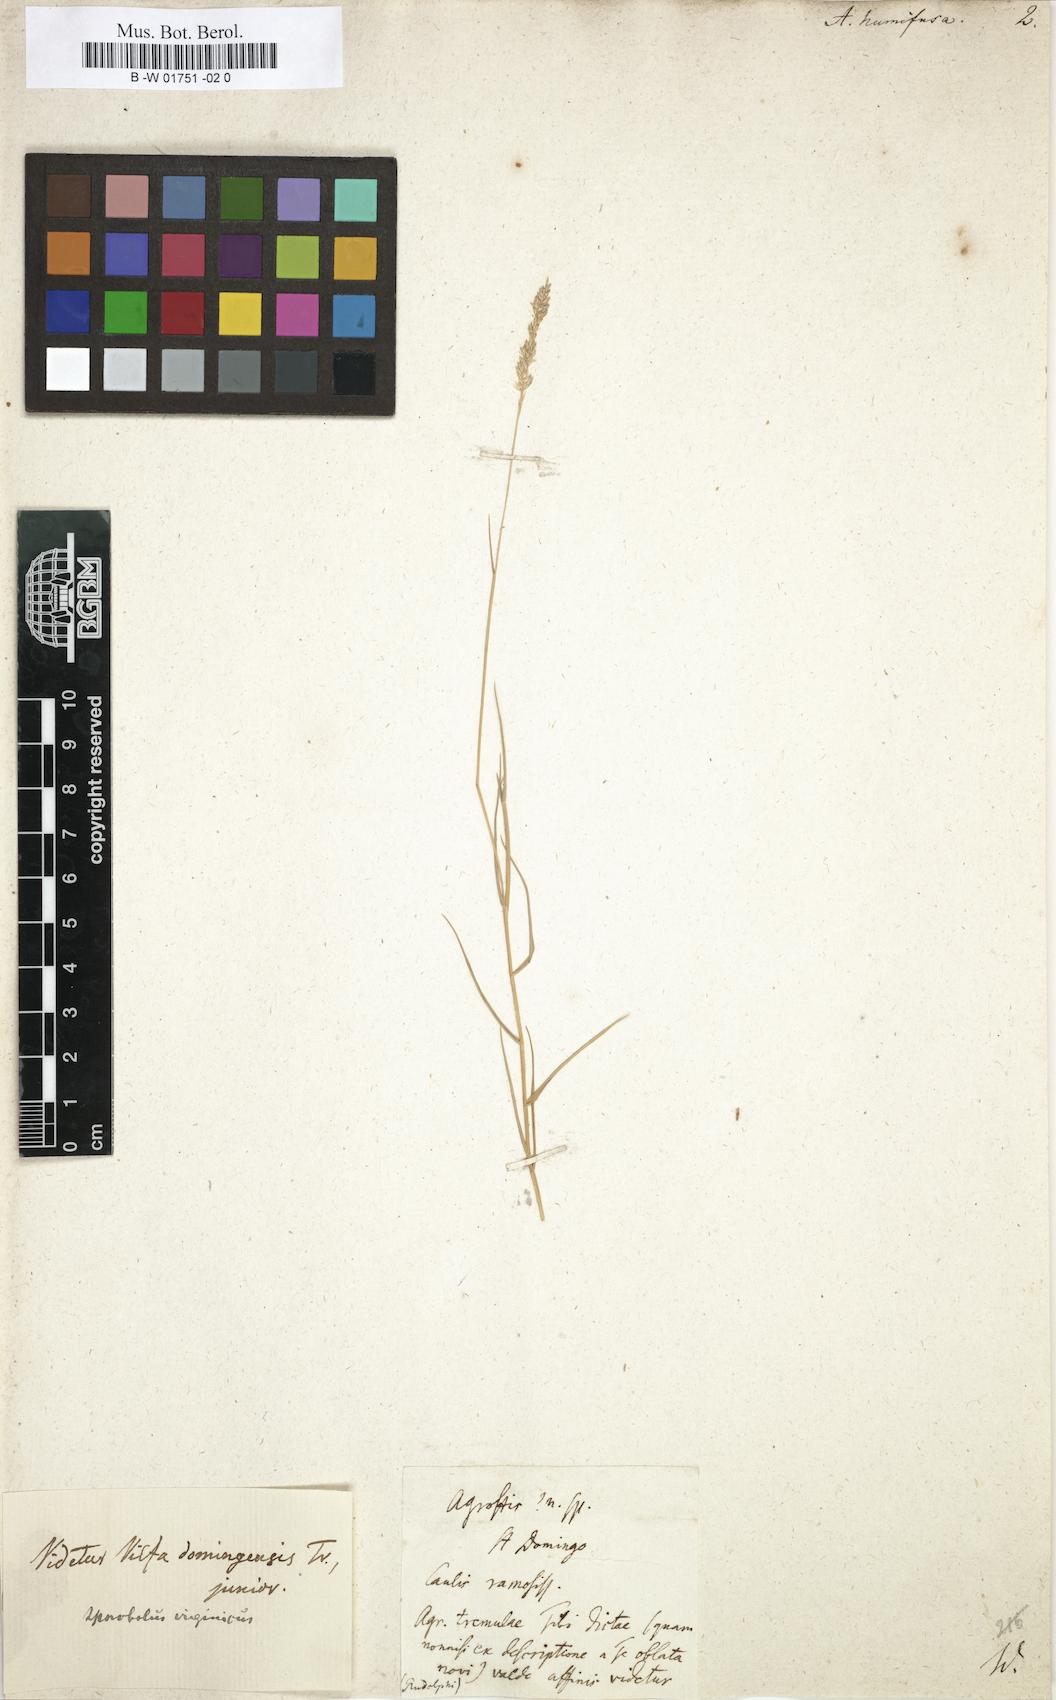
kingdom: Plantae
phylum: Tracheophyta
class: Liliopsida
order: Poales
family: Poaceae
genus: Sporobolus
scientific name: Sporobolus pyramidatus
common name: Whorled dropseed
